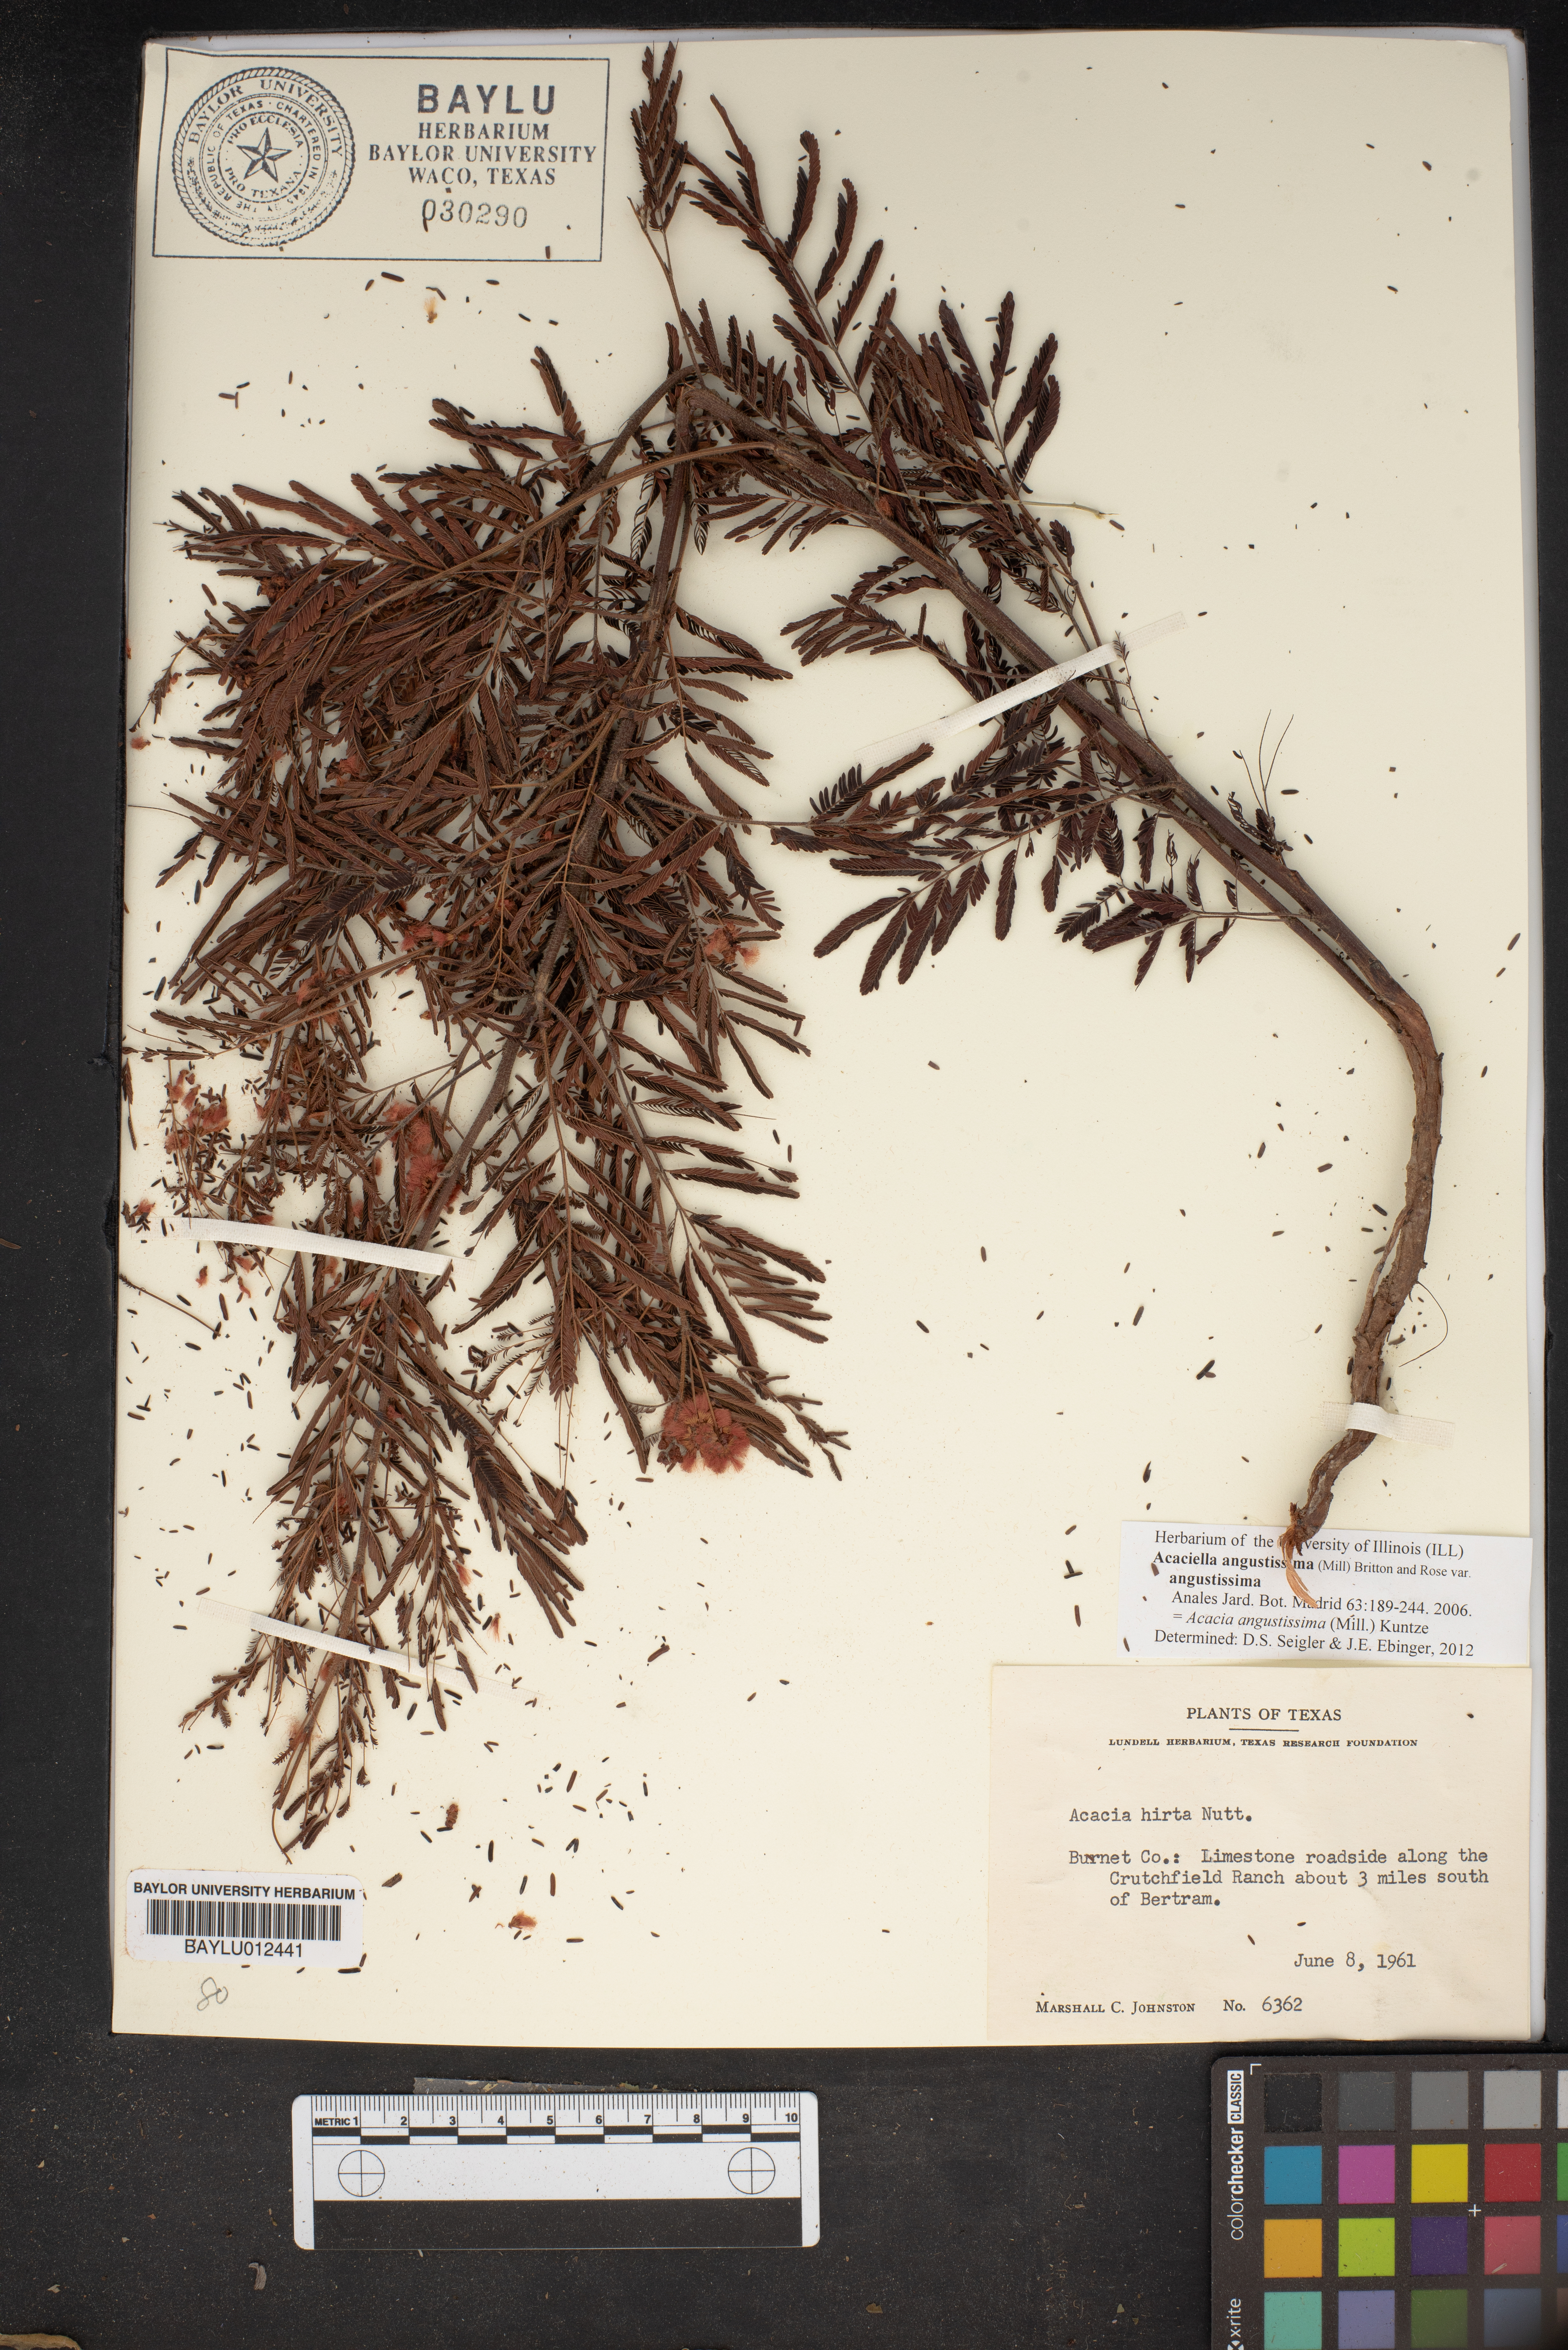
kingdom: Plantae
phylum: Tracheophyta
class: Magnoliopsida
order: Fabales
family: Fabaceae
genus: Acaciella
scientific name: Acaciella angustissima
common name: Prairie acacia
